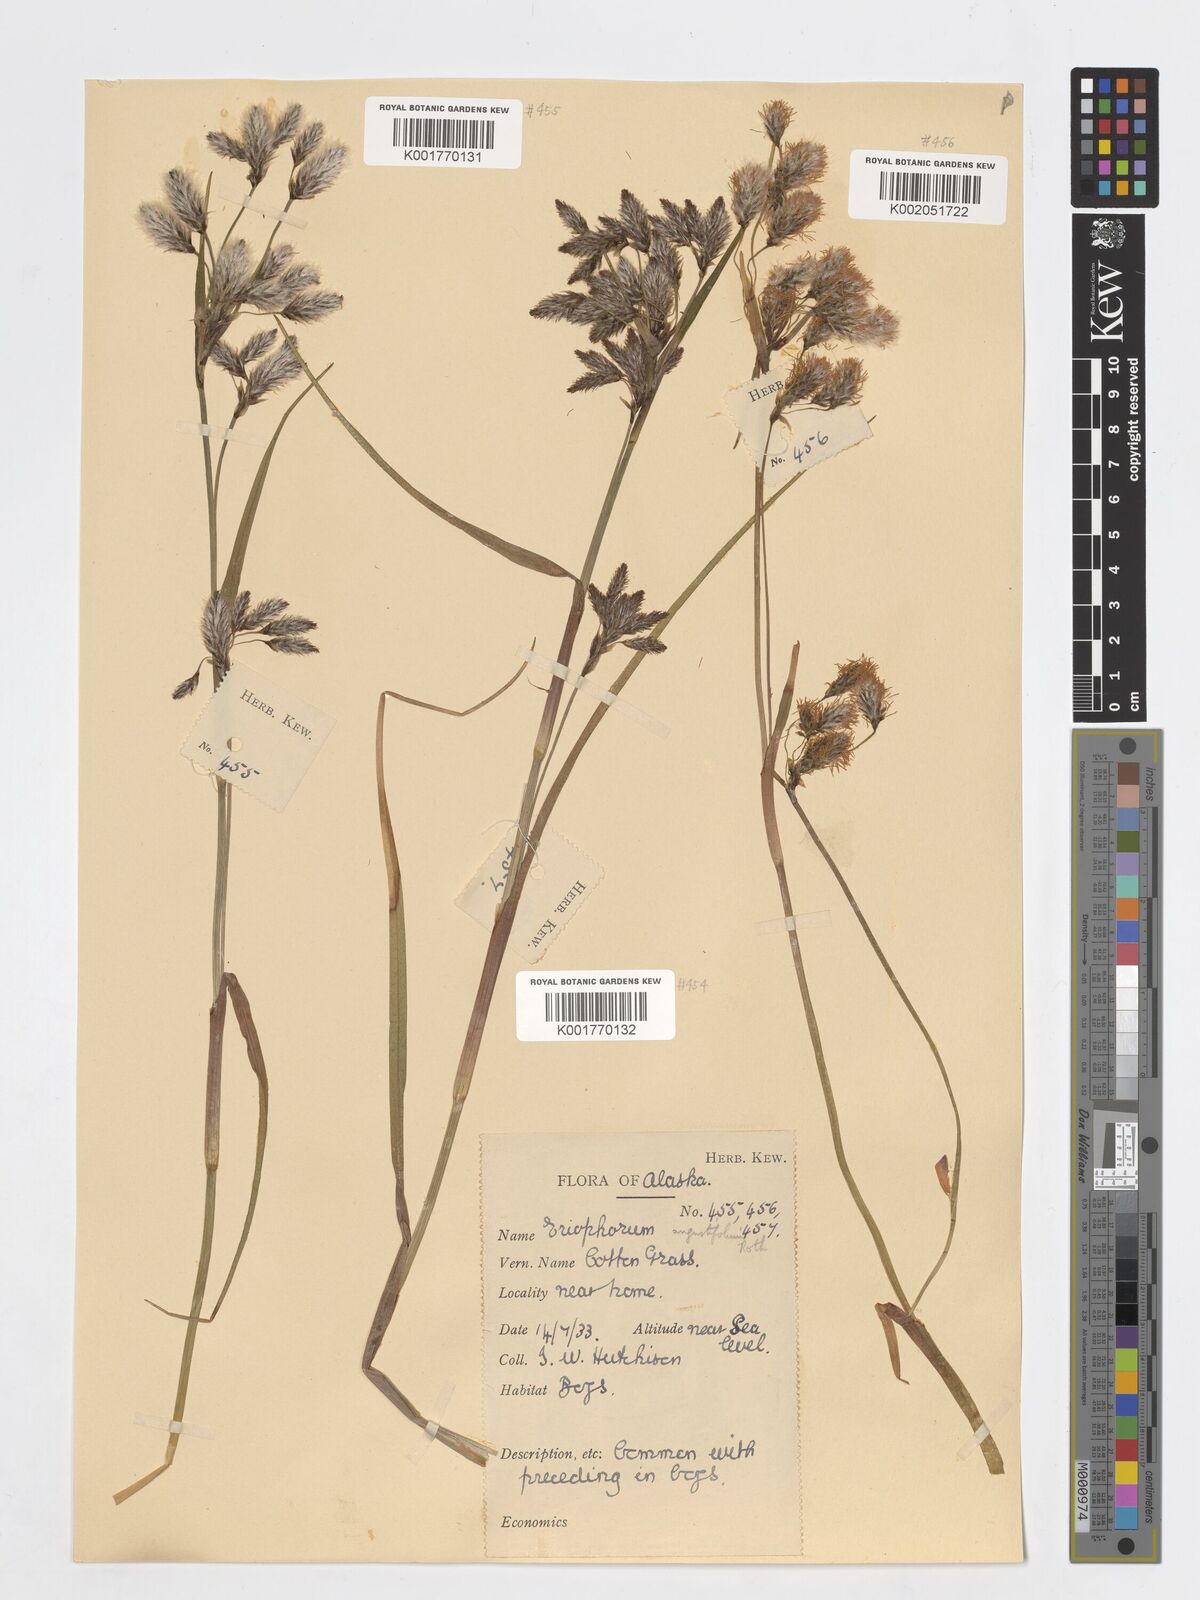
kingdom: Plantae
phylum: Tracheophyta
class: Liliopsida
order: Poales
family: Cyperaceae
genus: Eriophorum
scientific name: Eriophorum angustifolium
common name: Common cottongrass
